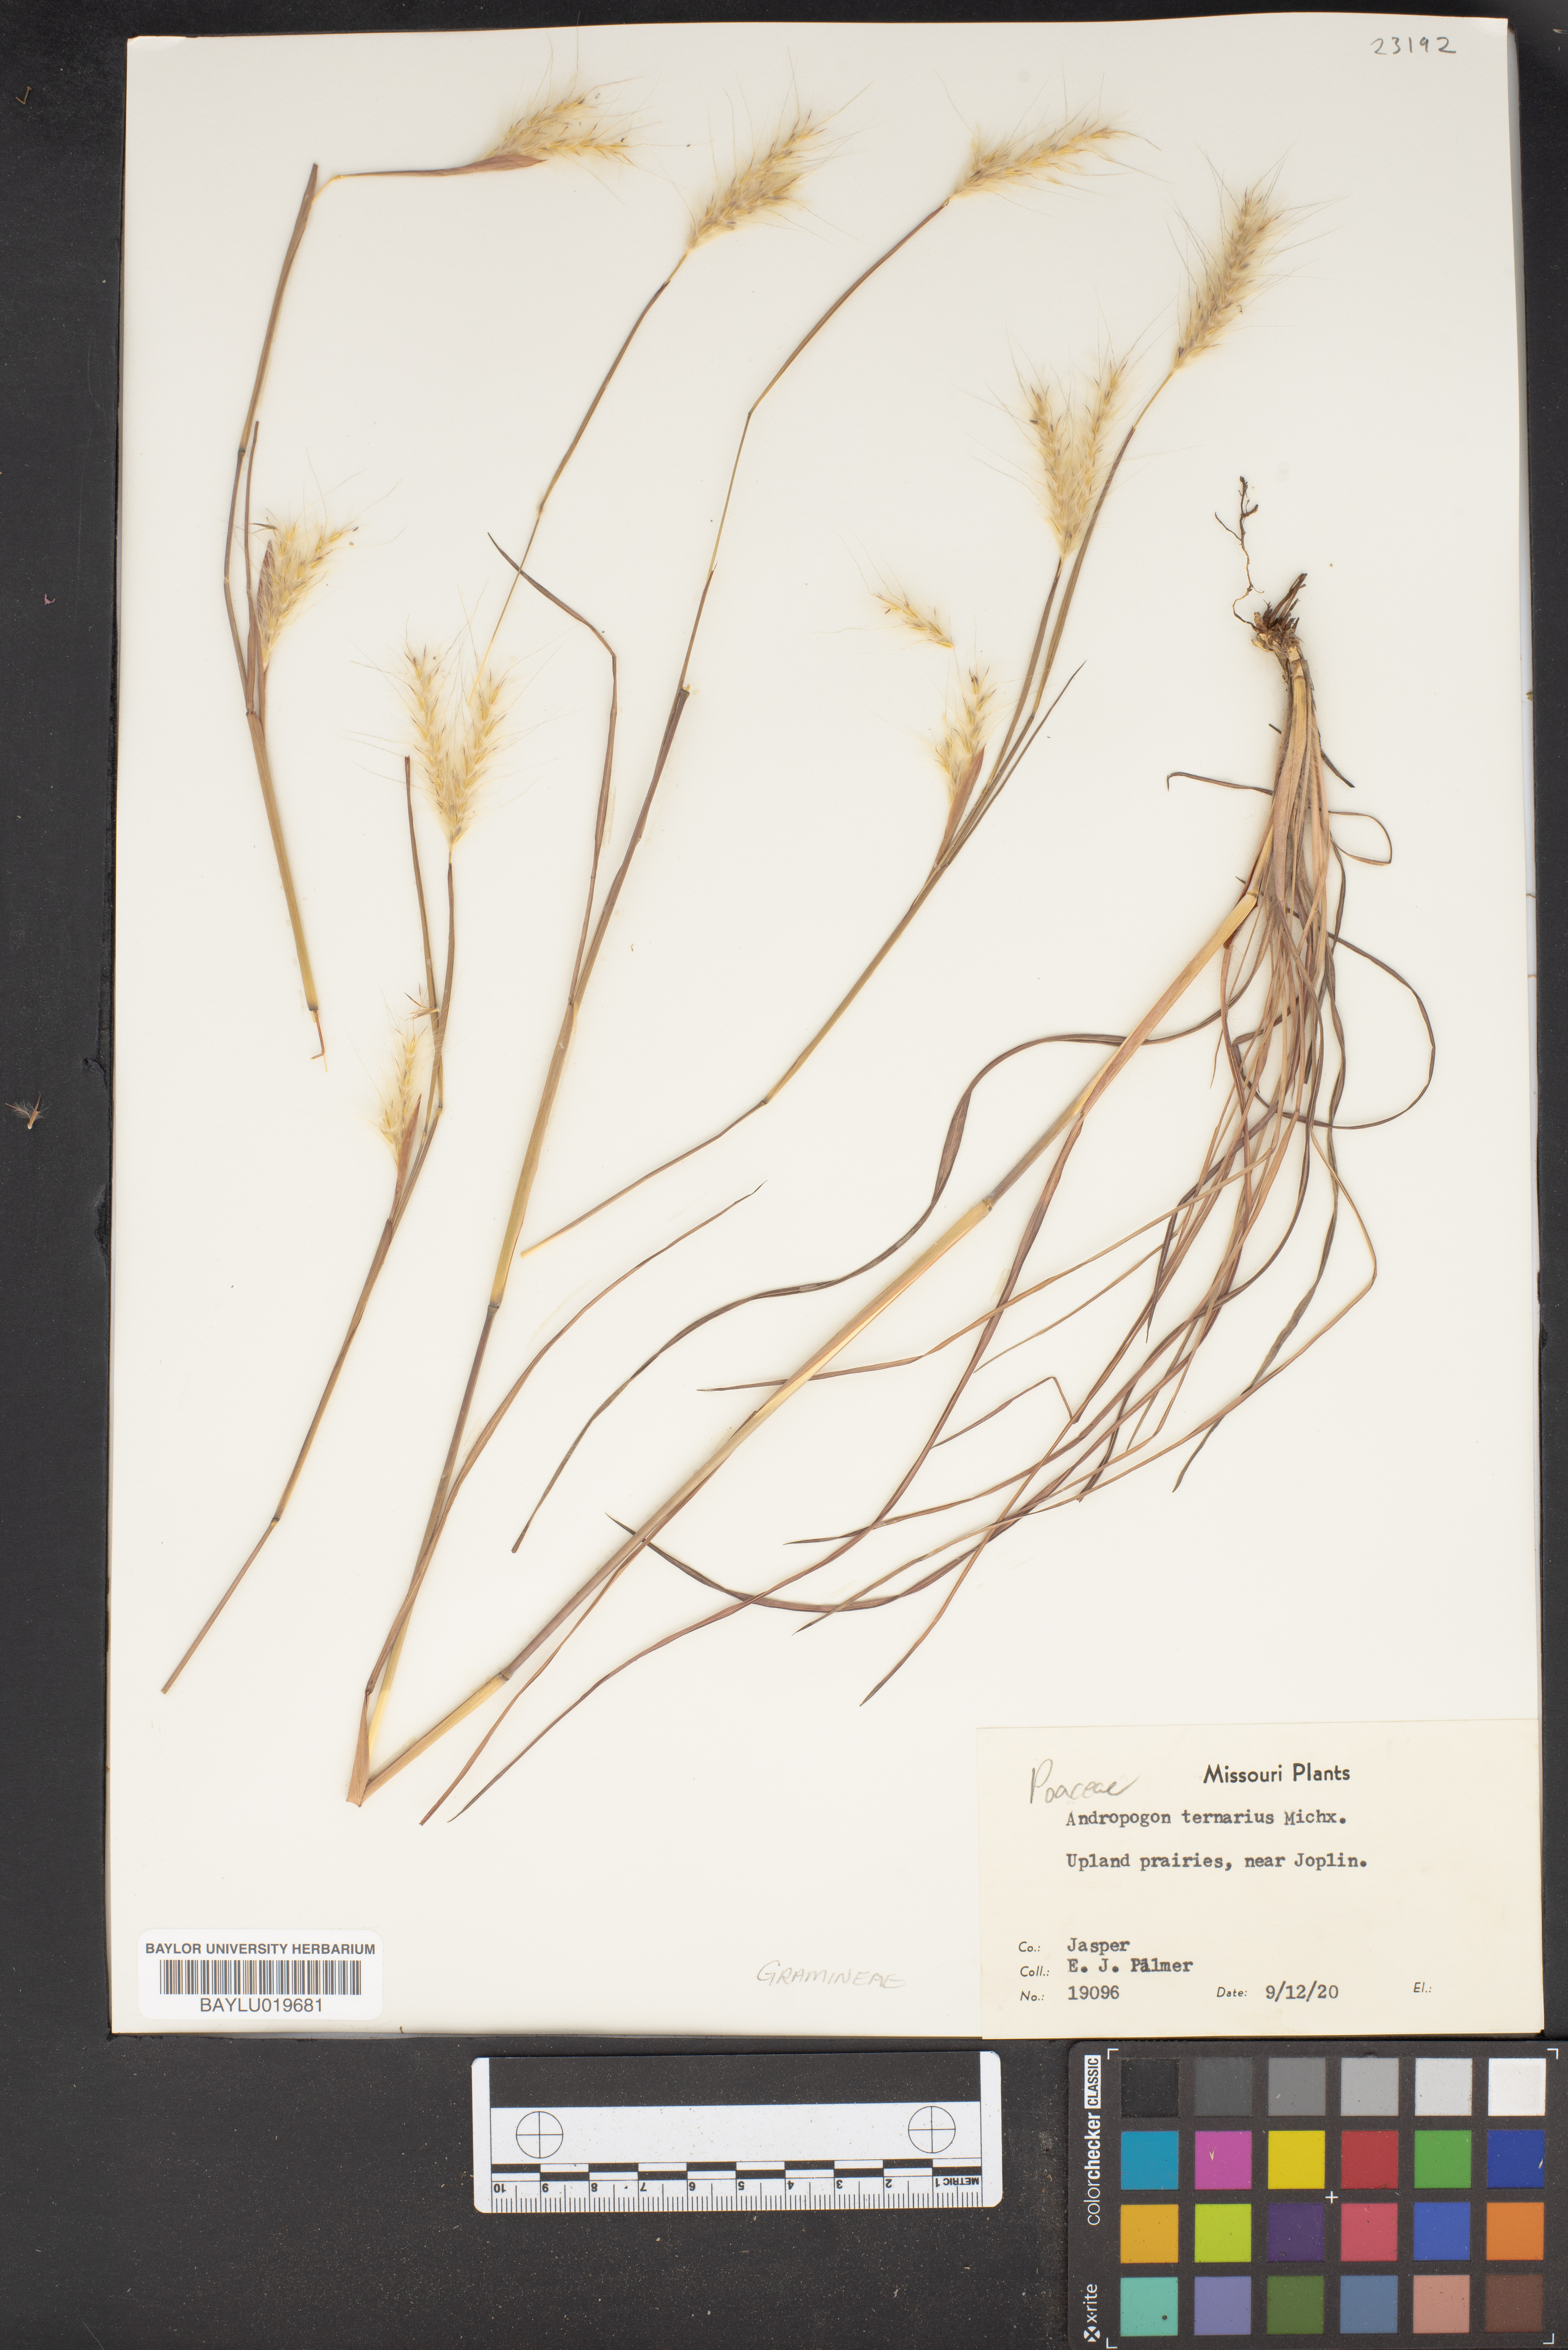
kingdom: Plantae
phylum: Tracheophyta
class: Liliopsida
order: Poales
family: Poaceae
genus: Andropogon
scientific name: Andropogon ternarius
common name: Split bluestem
